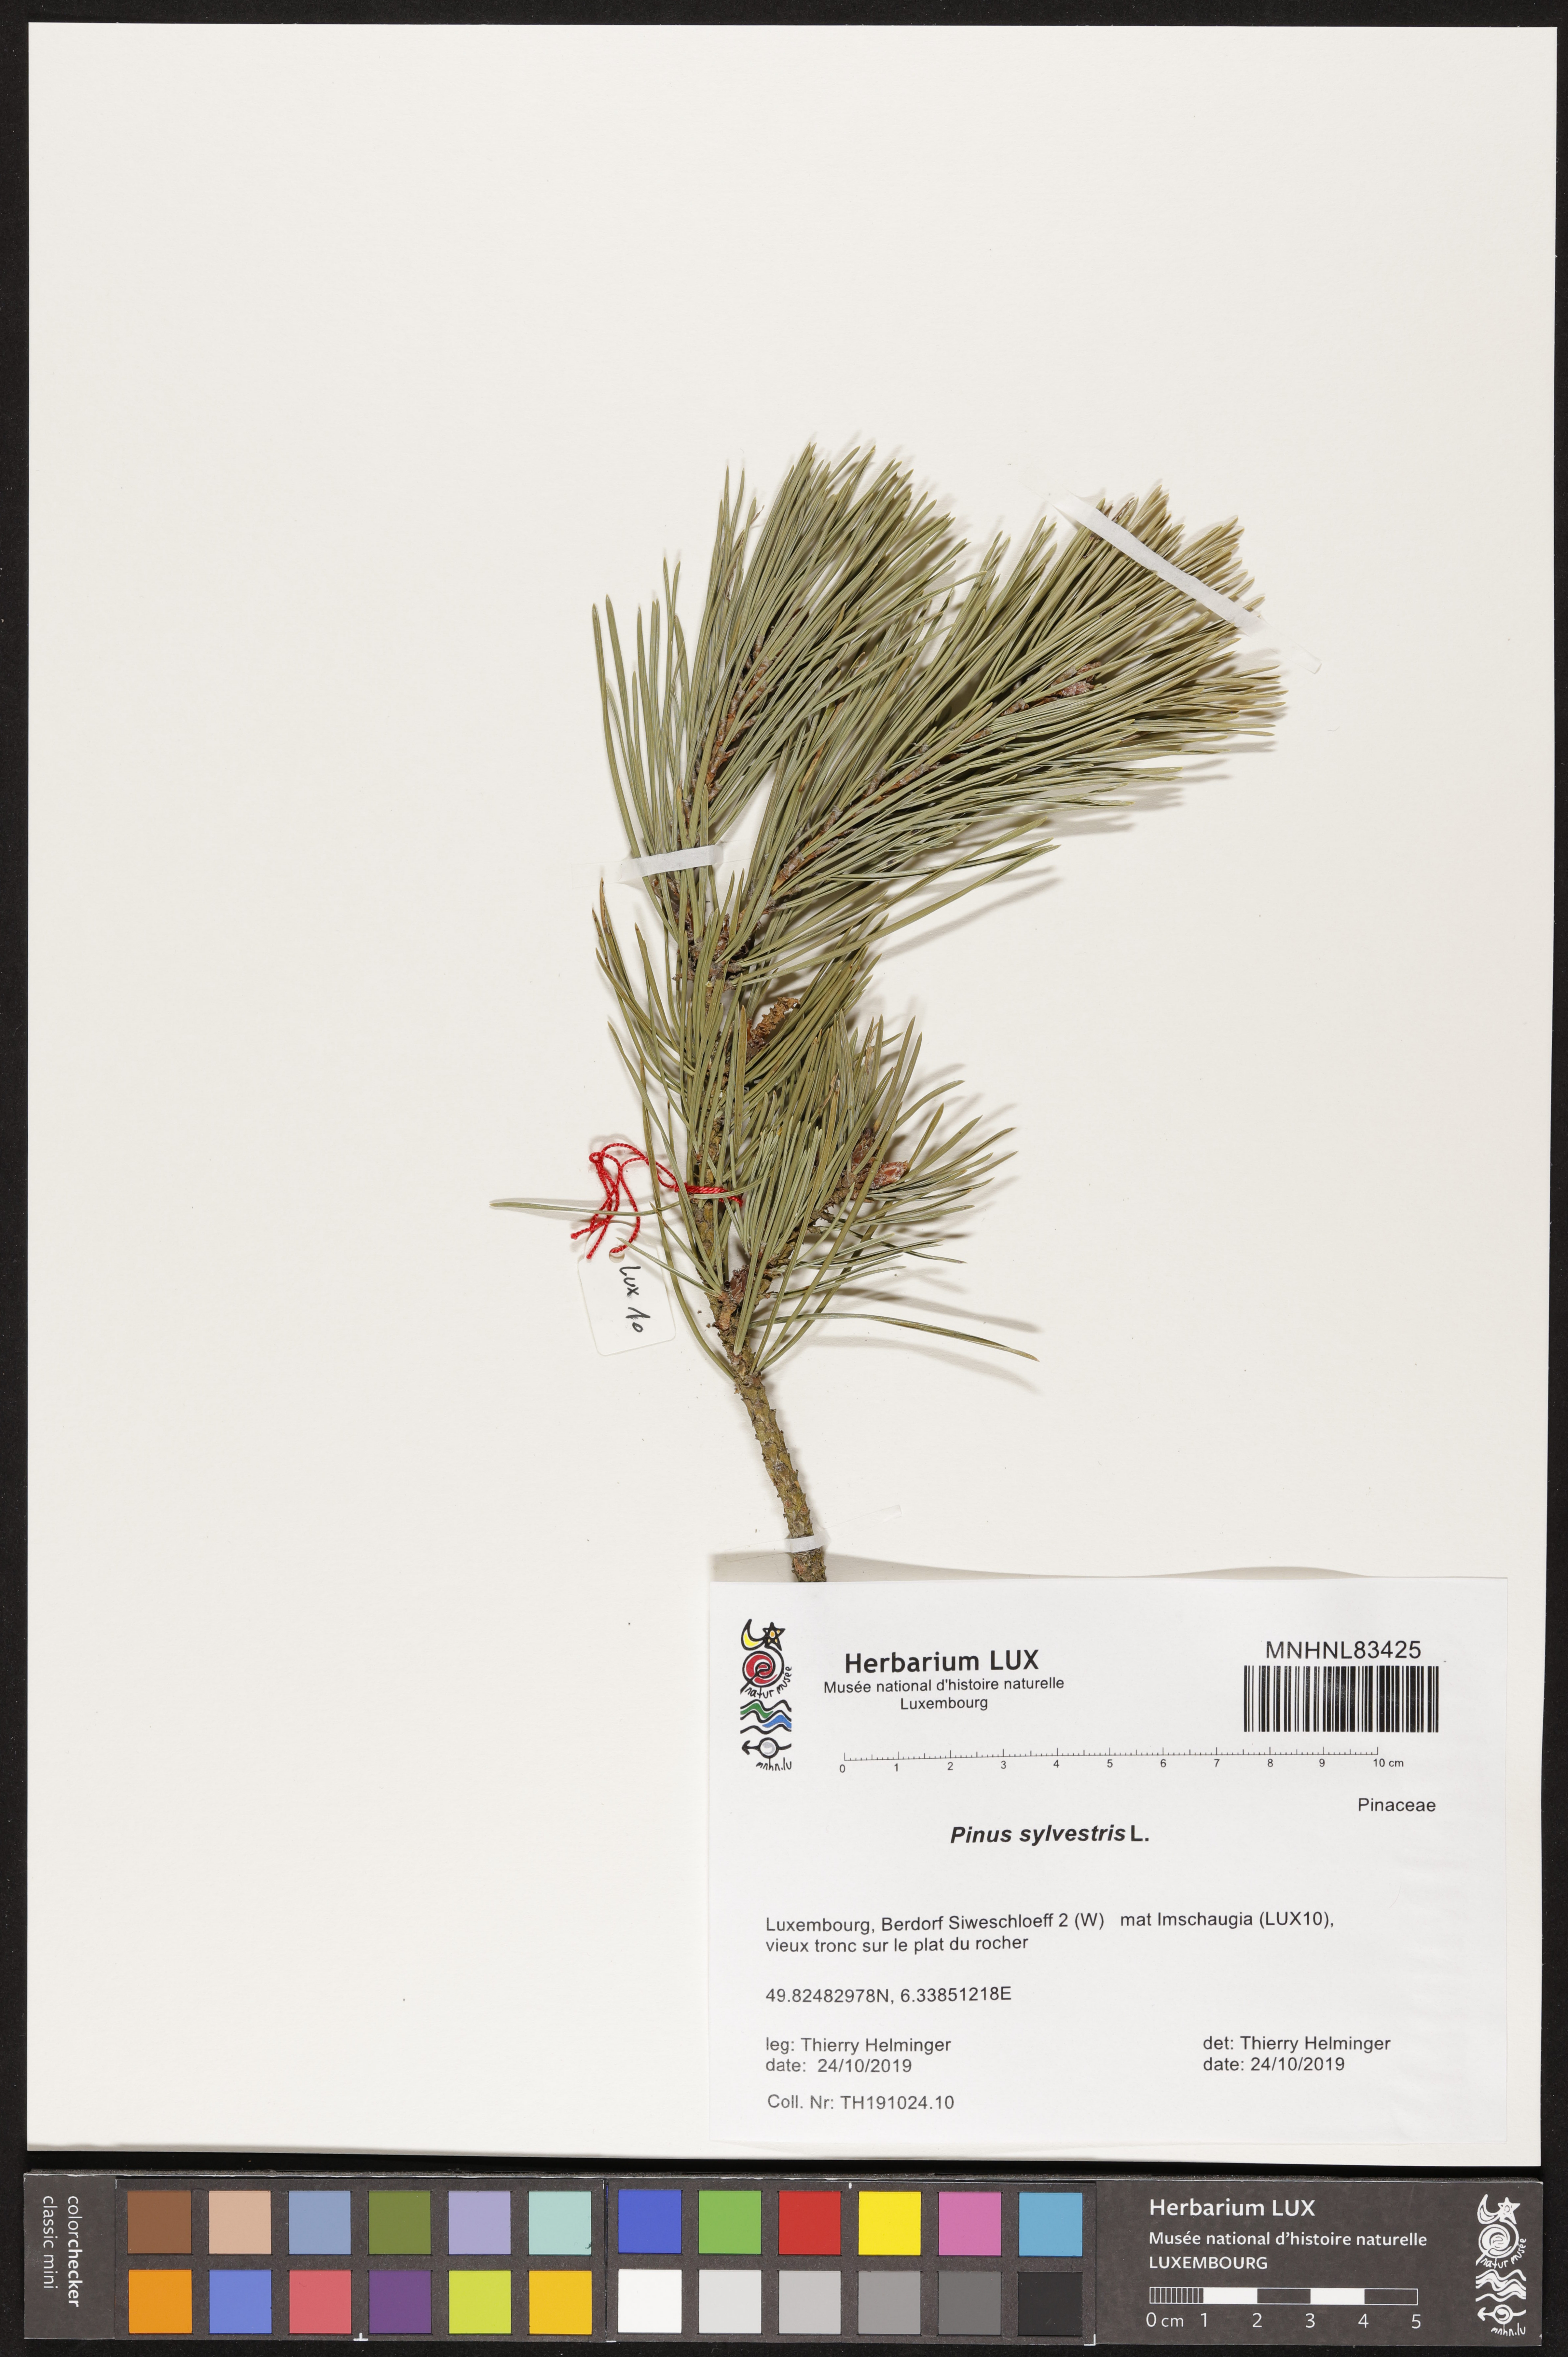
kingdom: Plantae
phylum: Tracheophyta
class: Pinopsida
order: Pinales
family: Pinaceae
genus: Pinus
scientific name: Pinus sylvestris
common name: Scots pine
